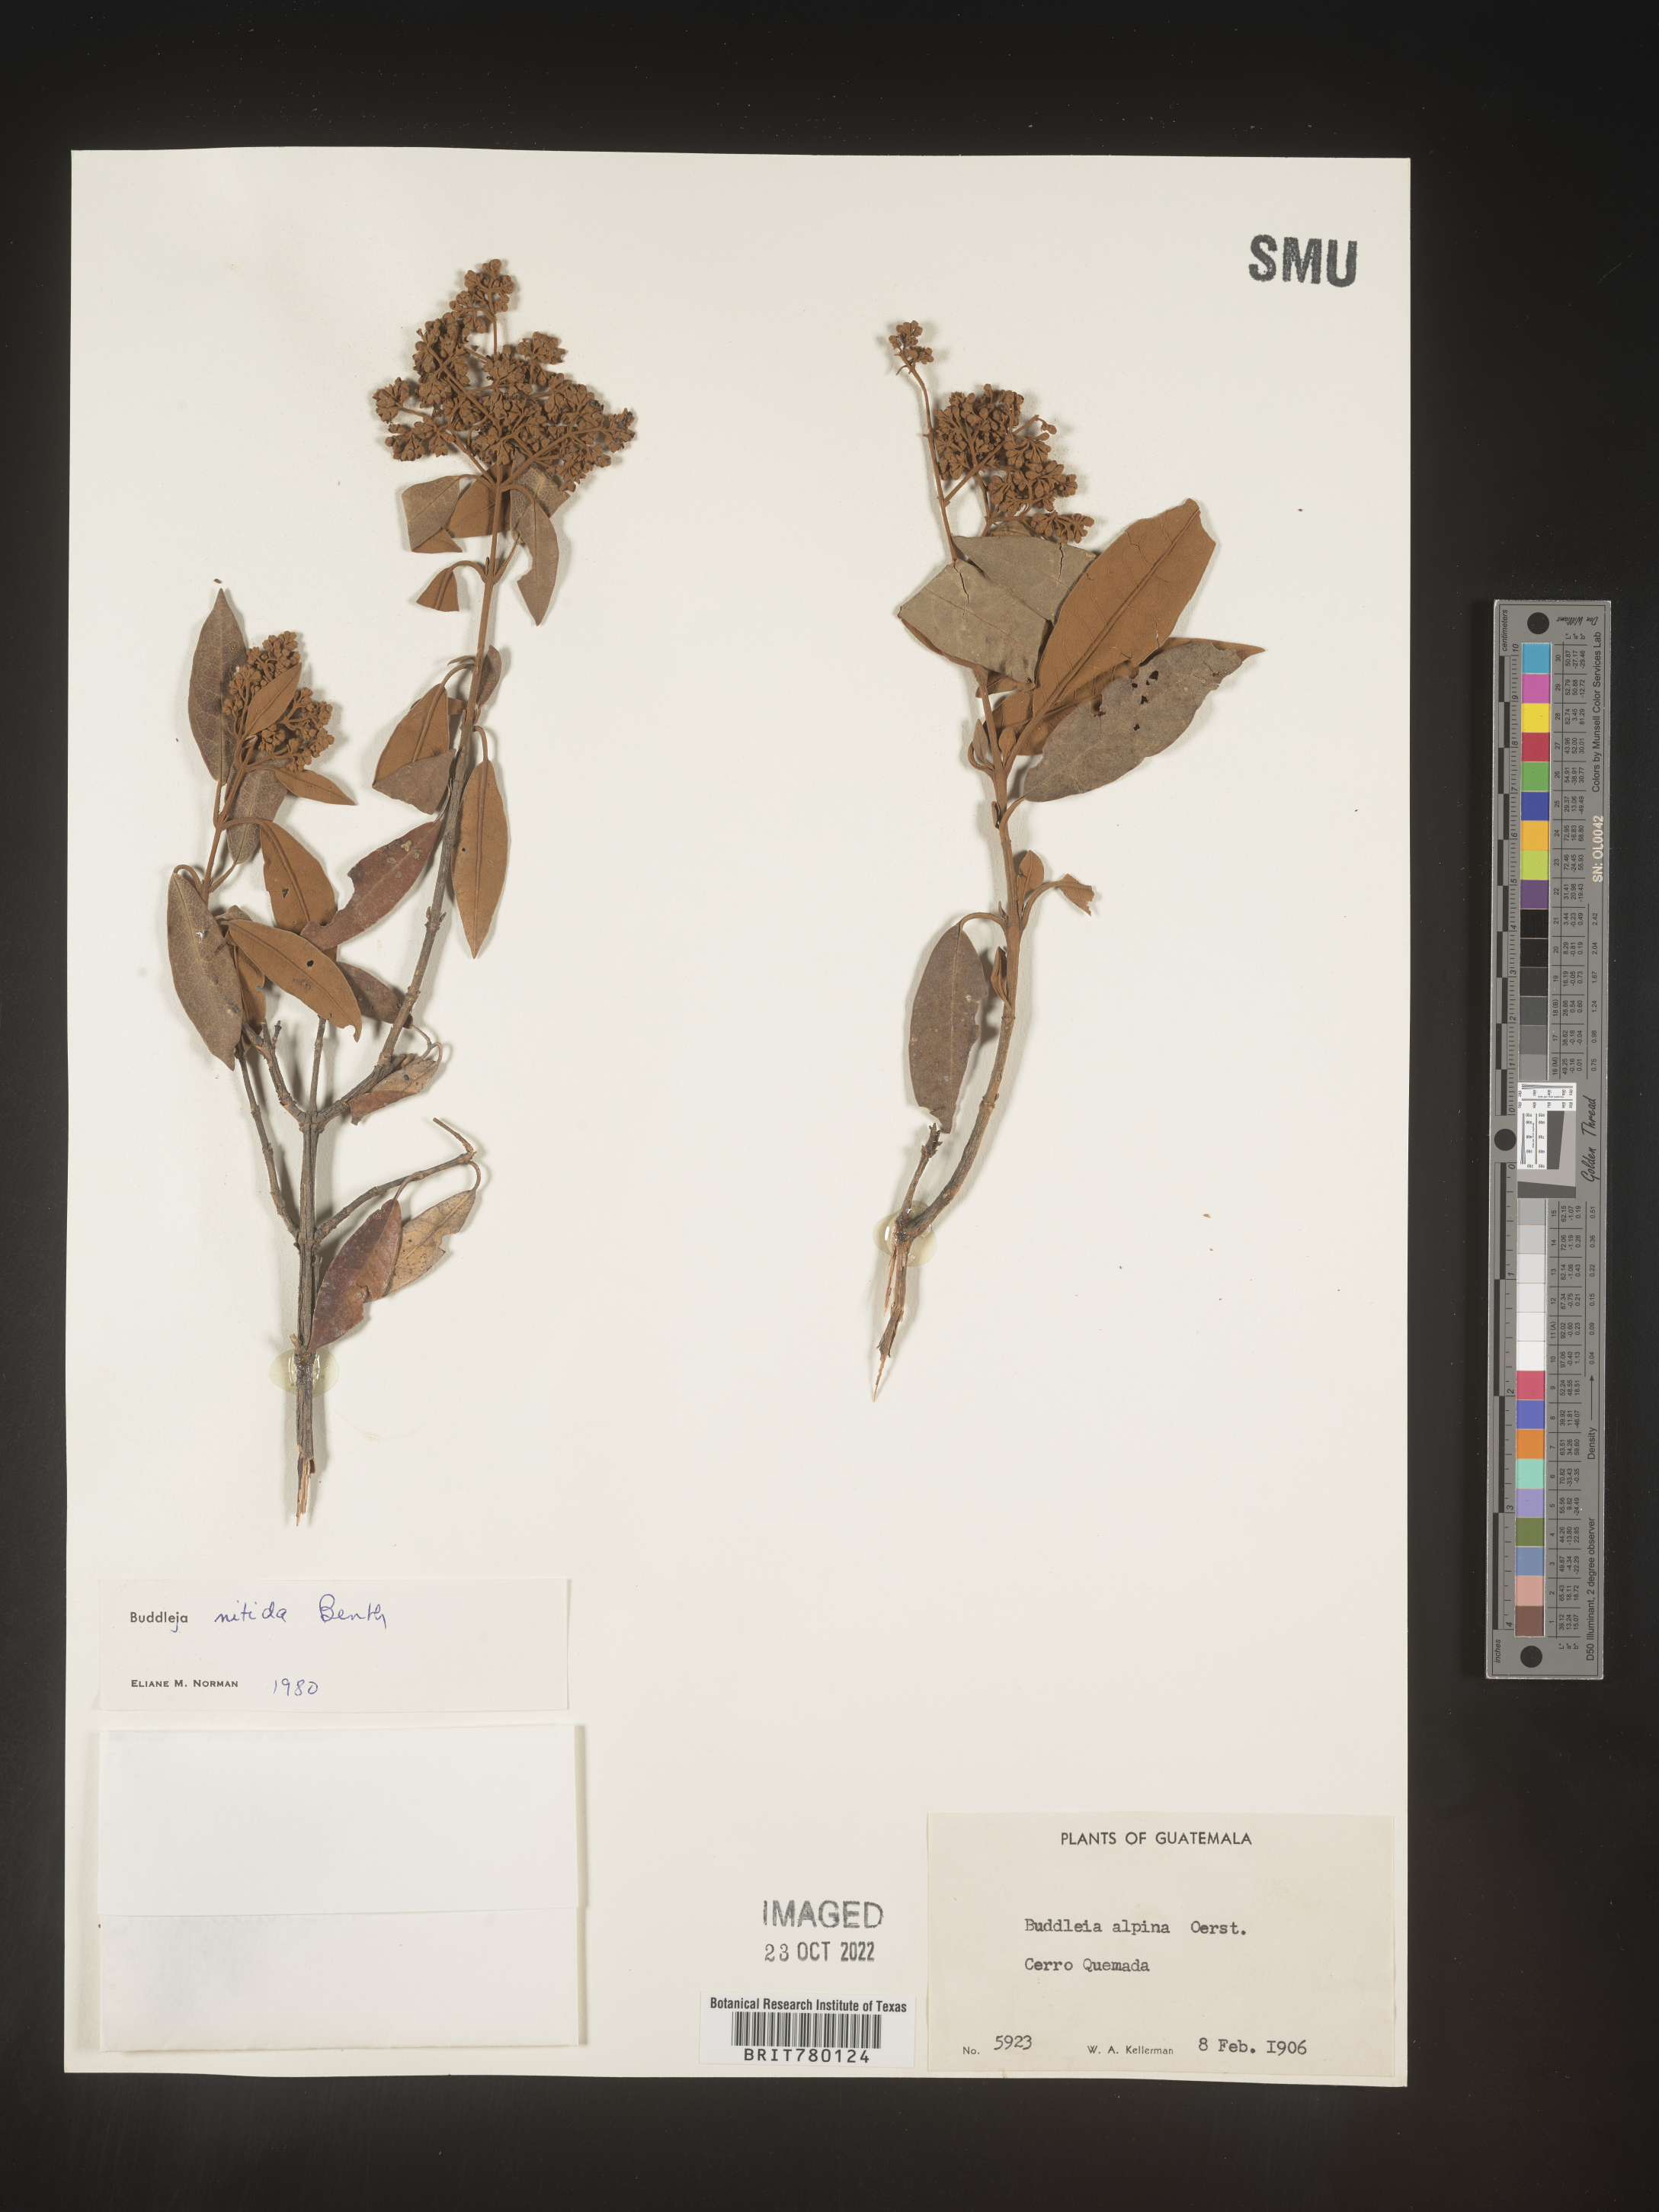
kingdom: Plantae
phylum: Tracheophyta
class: Magnoliopsida
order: Lamiales
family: Scrophulariaceae
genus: Buddleja
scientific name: Buddleja
